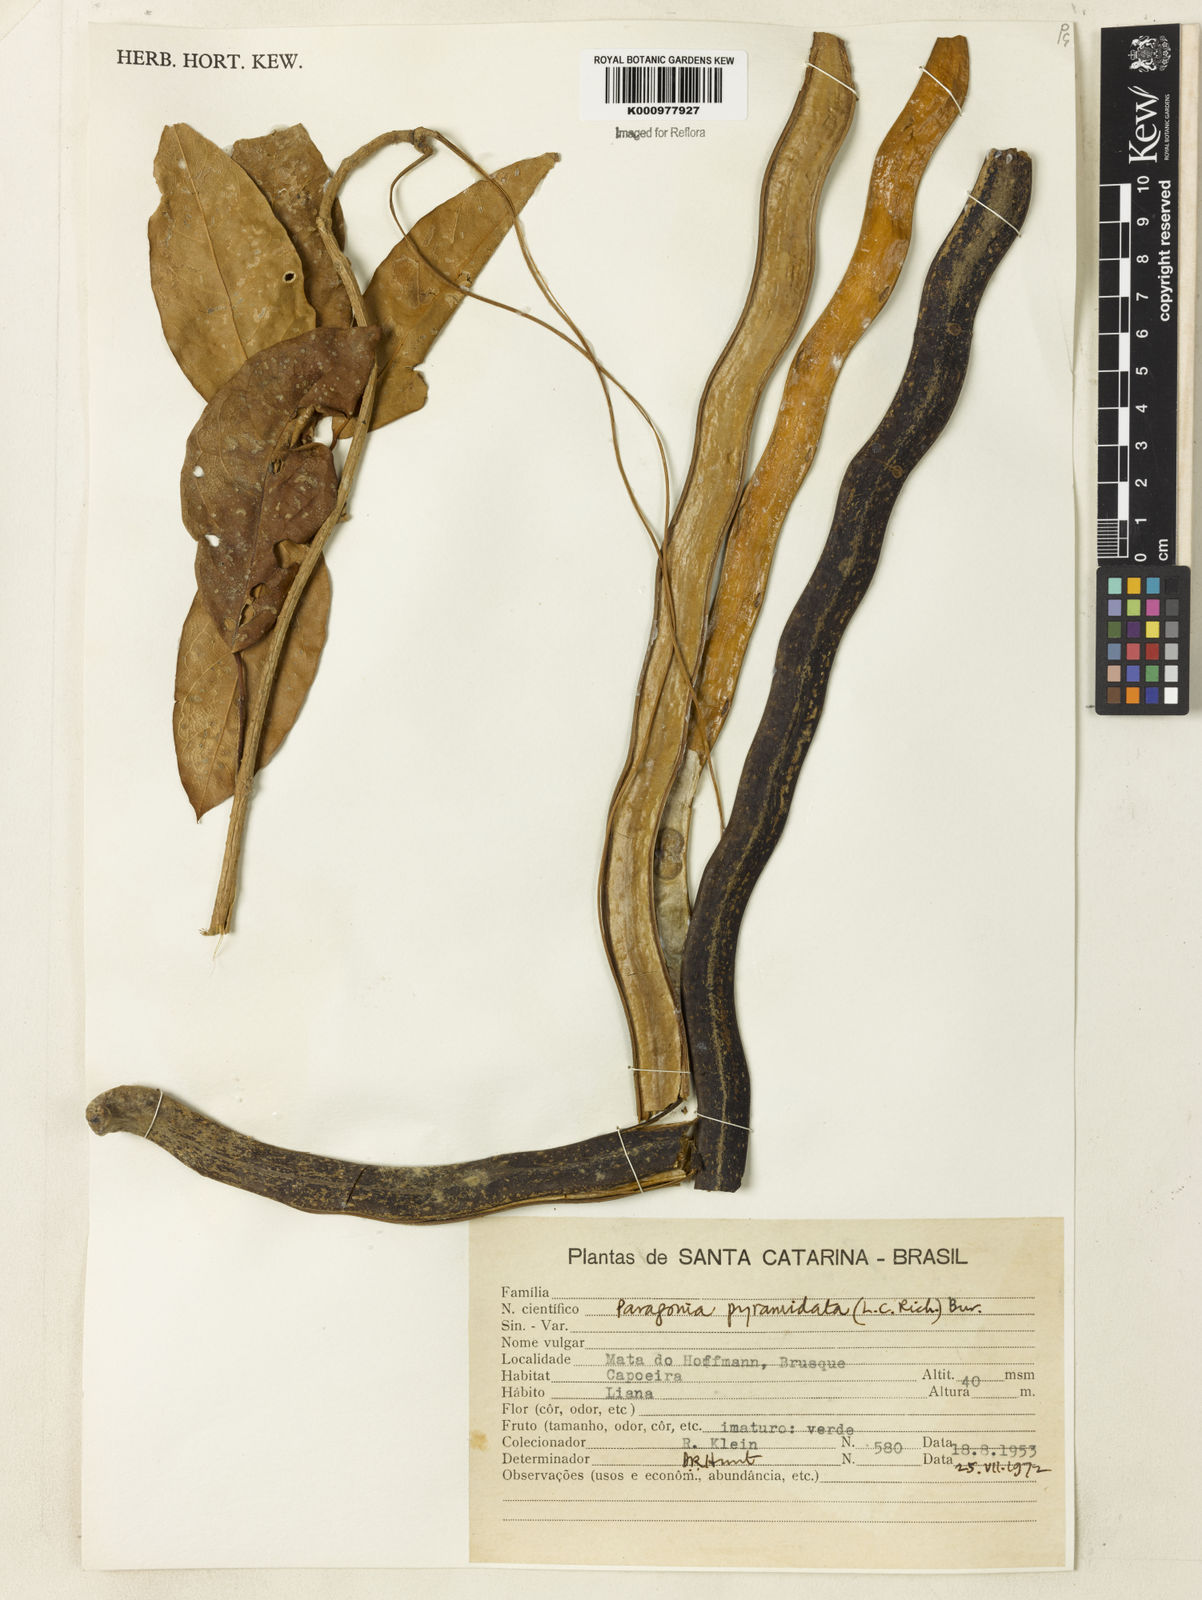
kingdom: Plantae
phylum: Tracheophyta
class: Magnoliopsida
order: Lamiales
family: Bignoniaceae
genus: Tanaecium
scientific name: Tanaecium pyramidatum
